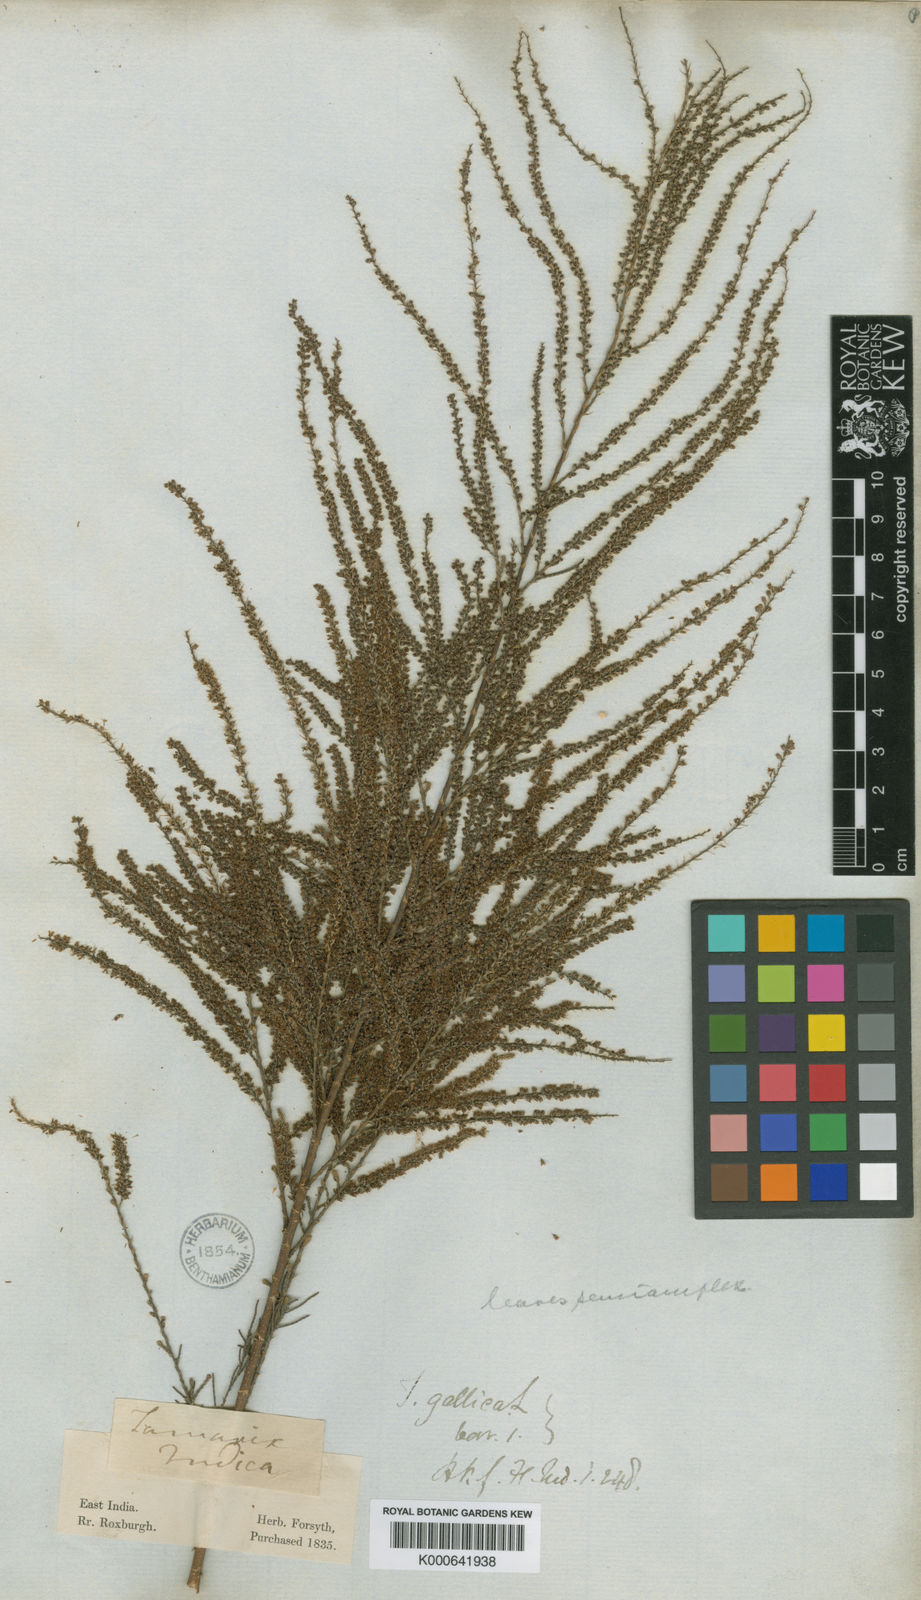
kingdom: Plantae
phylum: Tracheophyta
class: Magnoliopsida
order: Caryophyllales
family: Tamaricaceae
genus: Tamarix
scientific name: Tamarix indica
